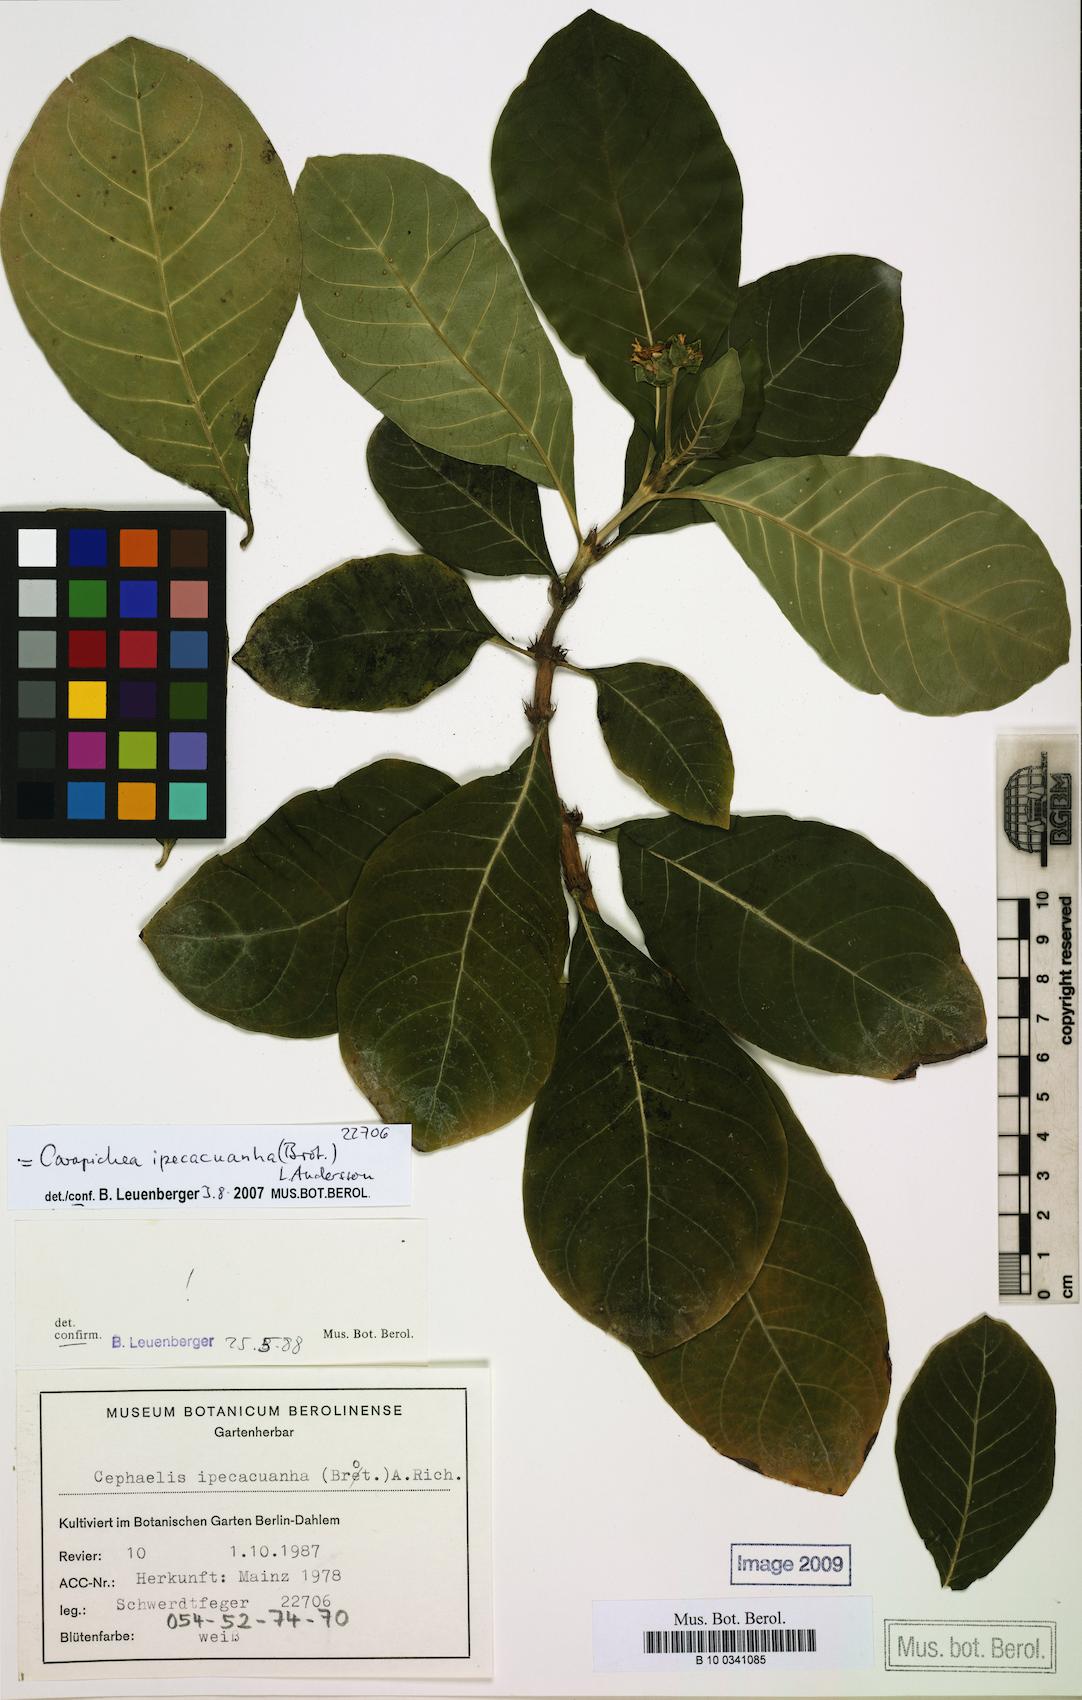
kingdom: Plantae
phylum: Tracheophyta
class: Magnoliopsida
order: Gentianales
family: Rubiaceae
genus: Carapichea
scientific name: Carapichea ipecacuanha
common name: Ipecac
